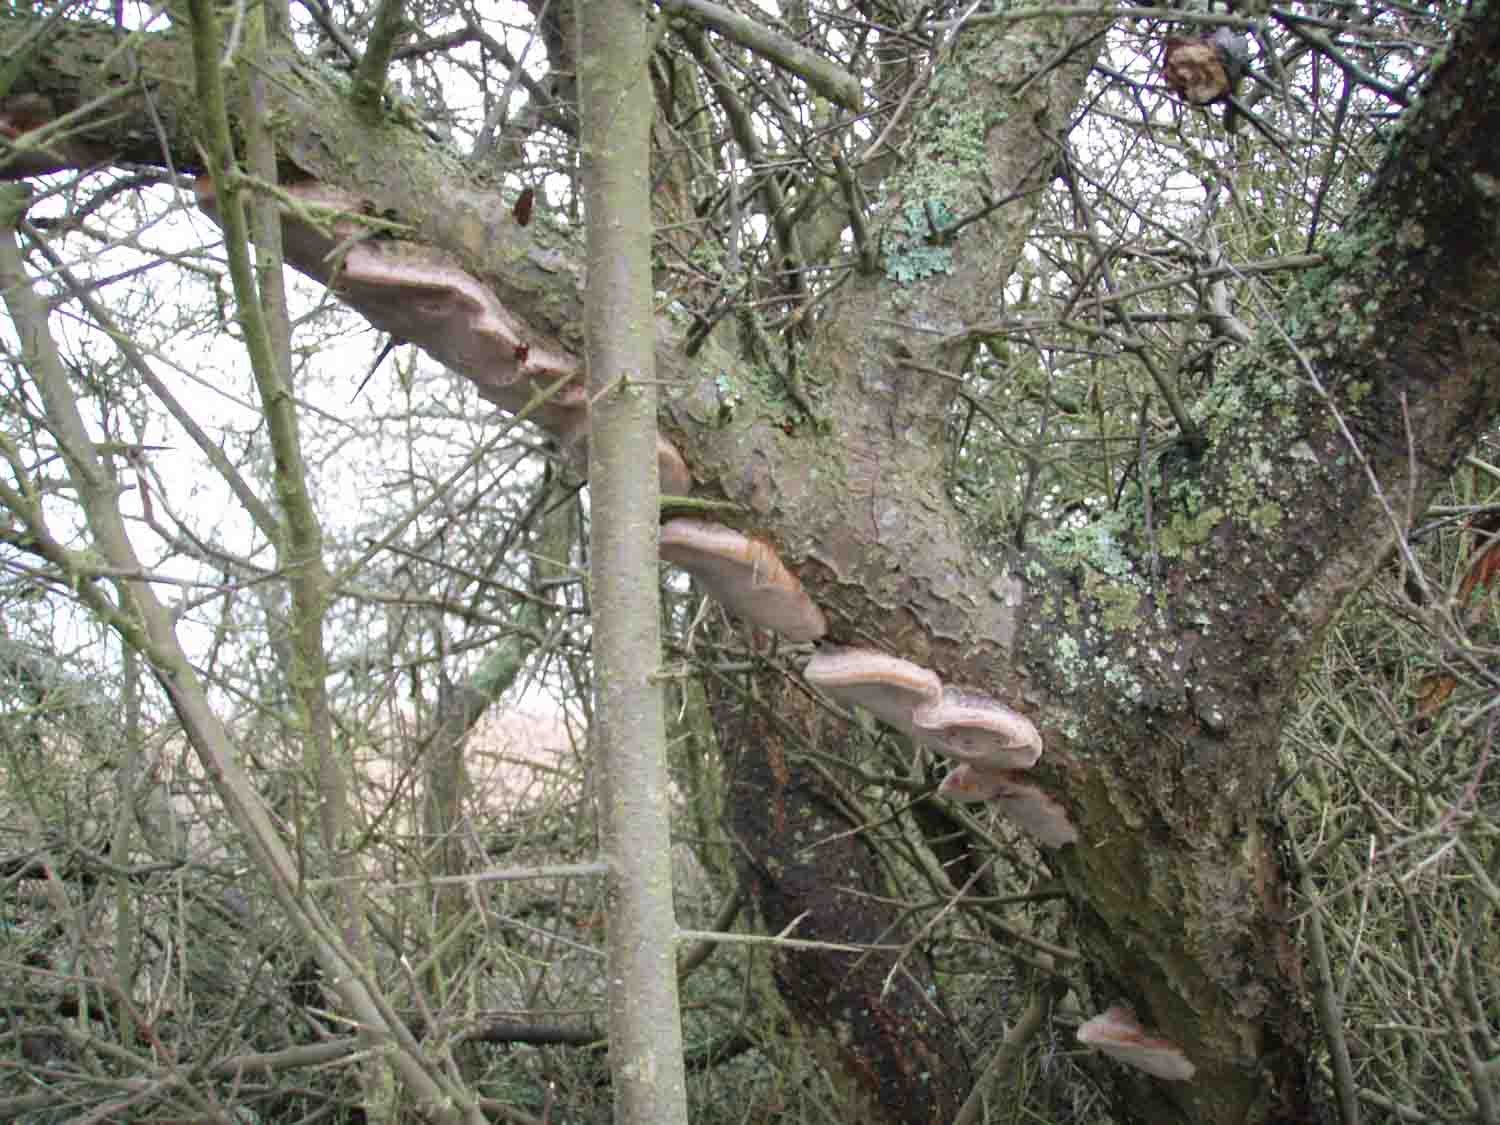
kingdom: Fungi
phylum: Basidiomycota
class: Agaricomycetes
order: Hymenochaetales
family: Hymenochaetaceae
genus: Phellinus
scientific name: Phellinus pomaceus
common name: blomme-ildporesvamp
